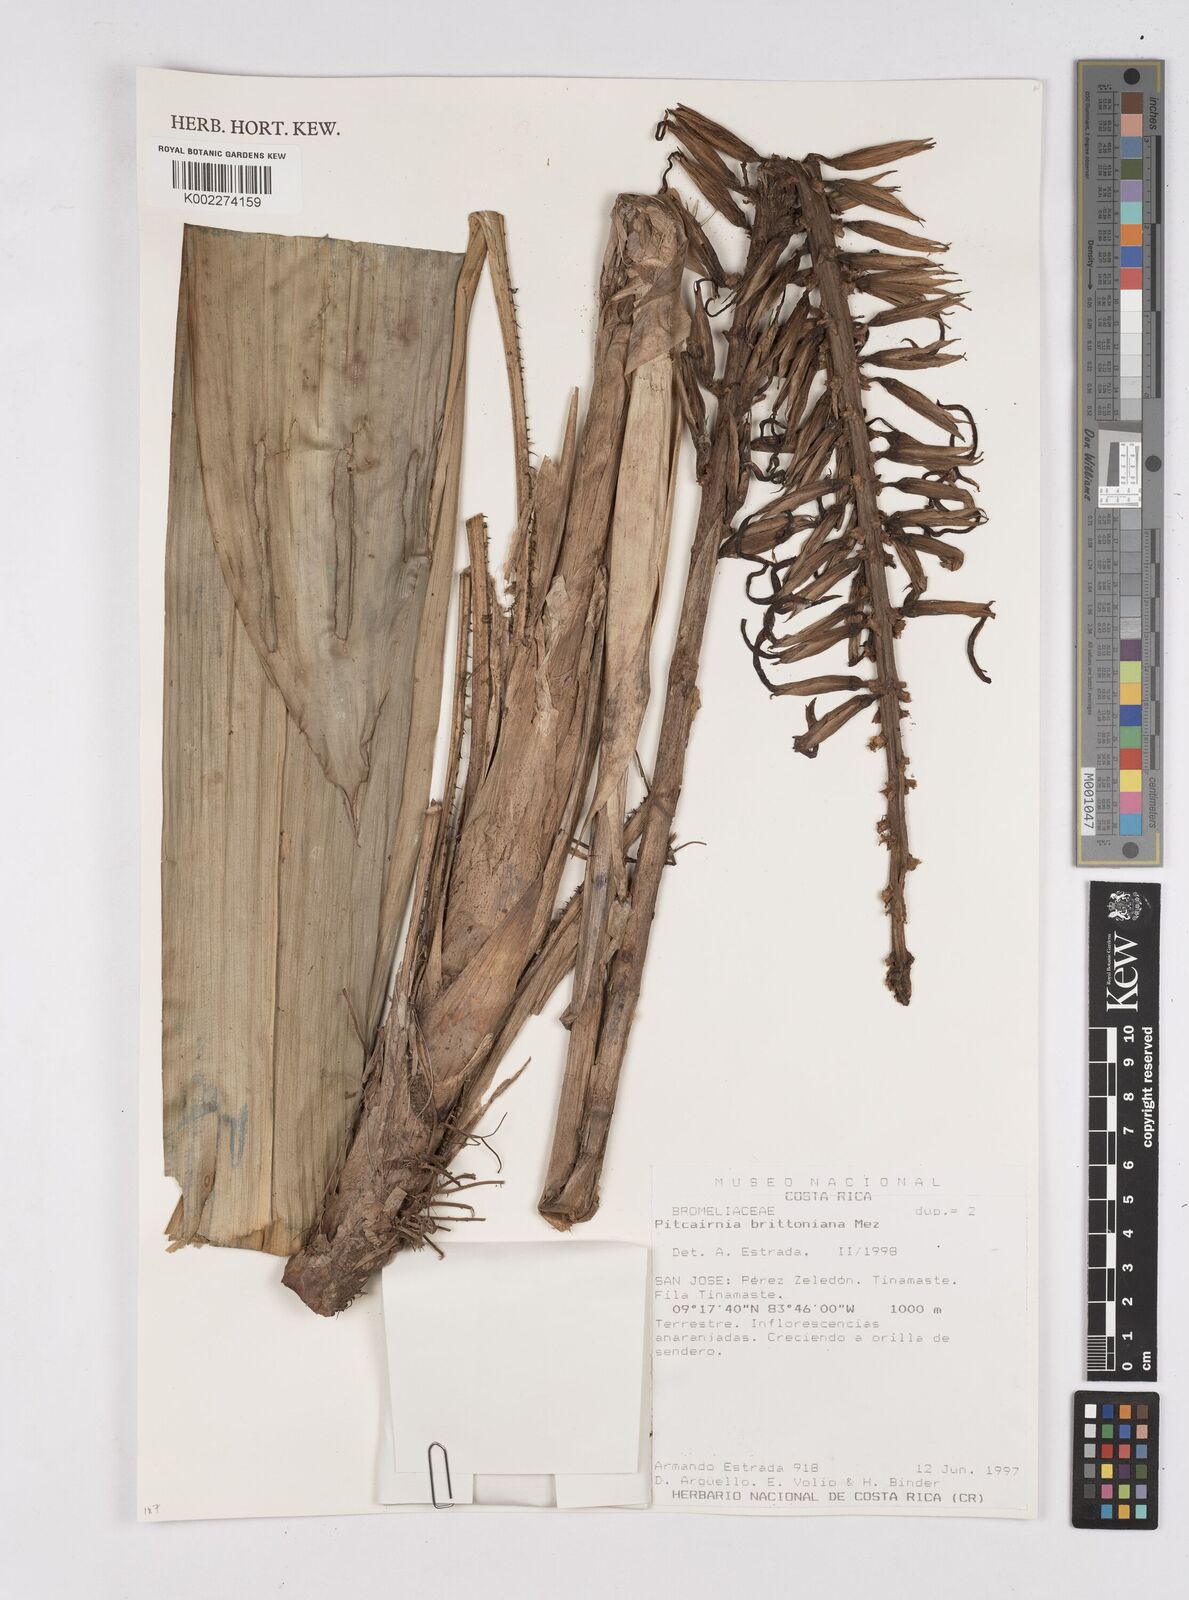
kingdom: Plantae
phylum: Tracheophyta
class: Liliopsida
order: Poales
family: Bromeliaceae
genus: Pitcairnia
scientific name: Pitcairnia brittoniana
